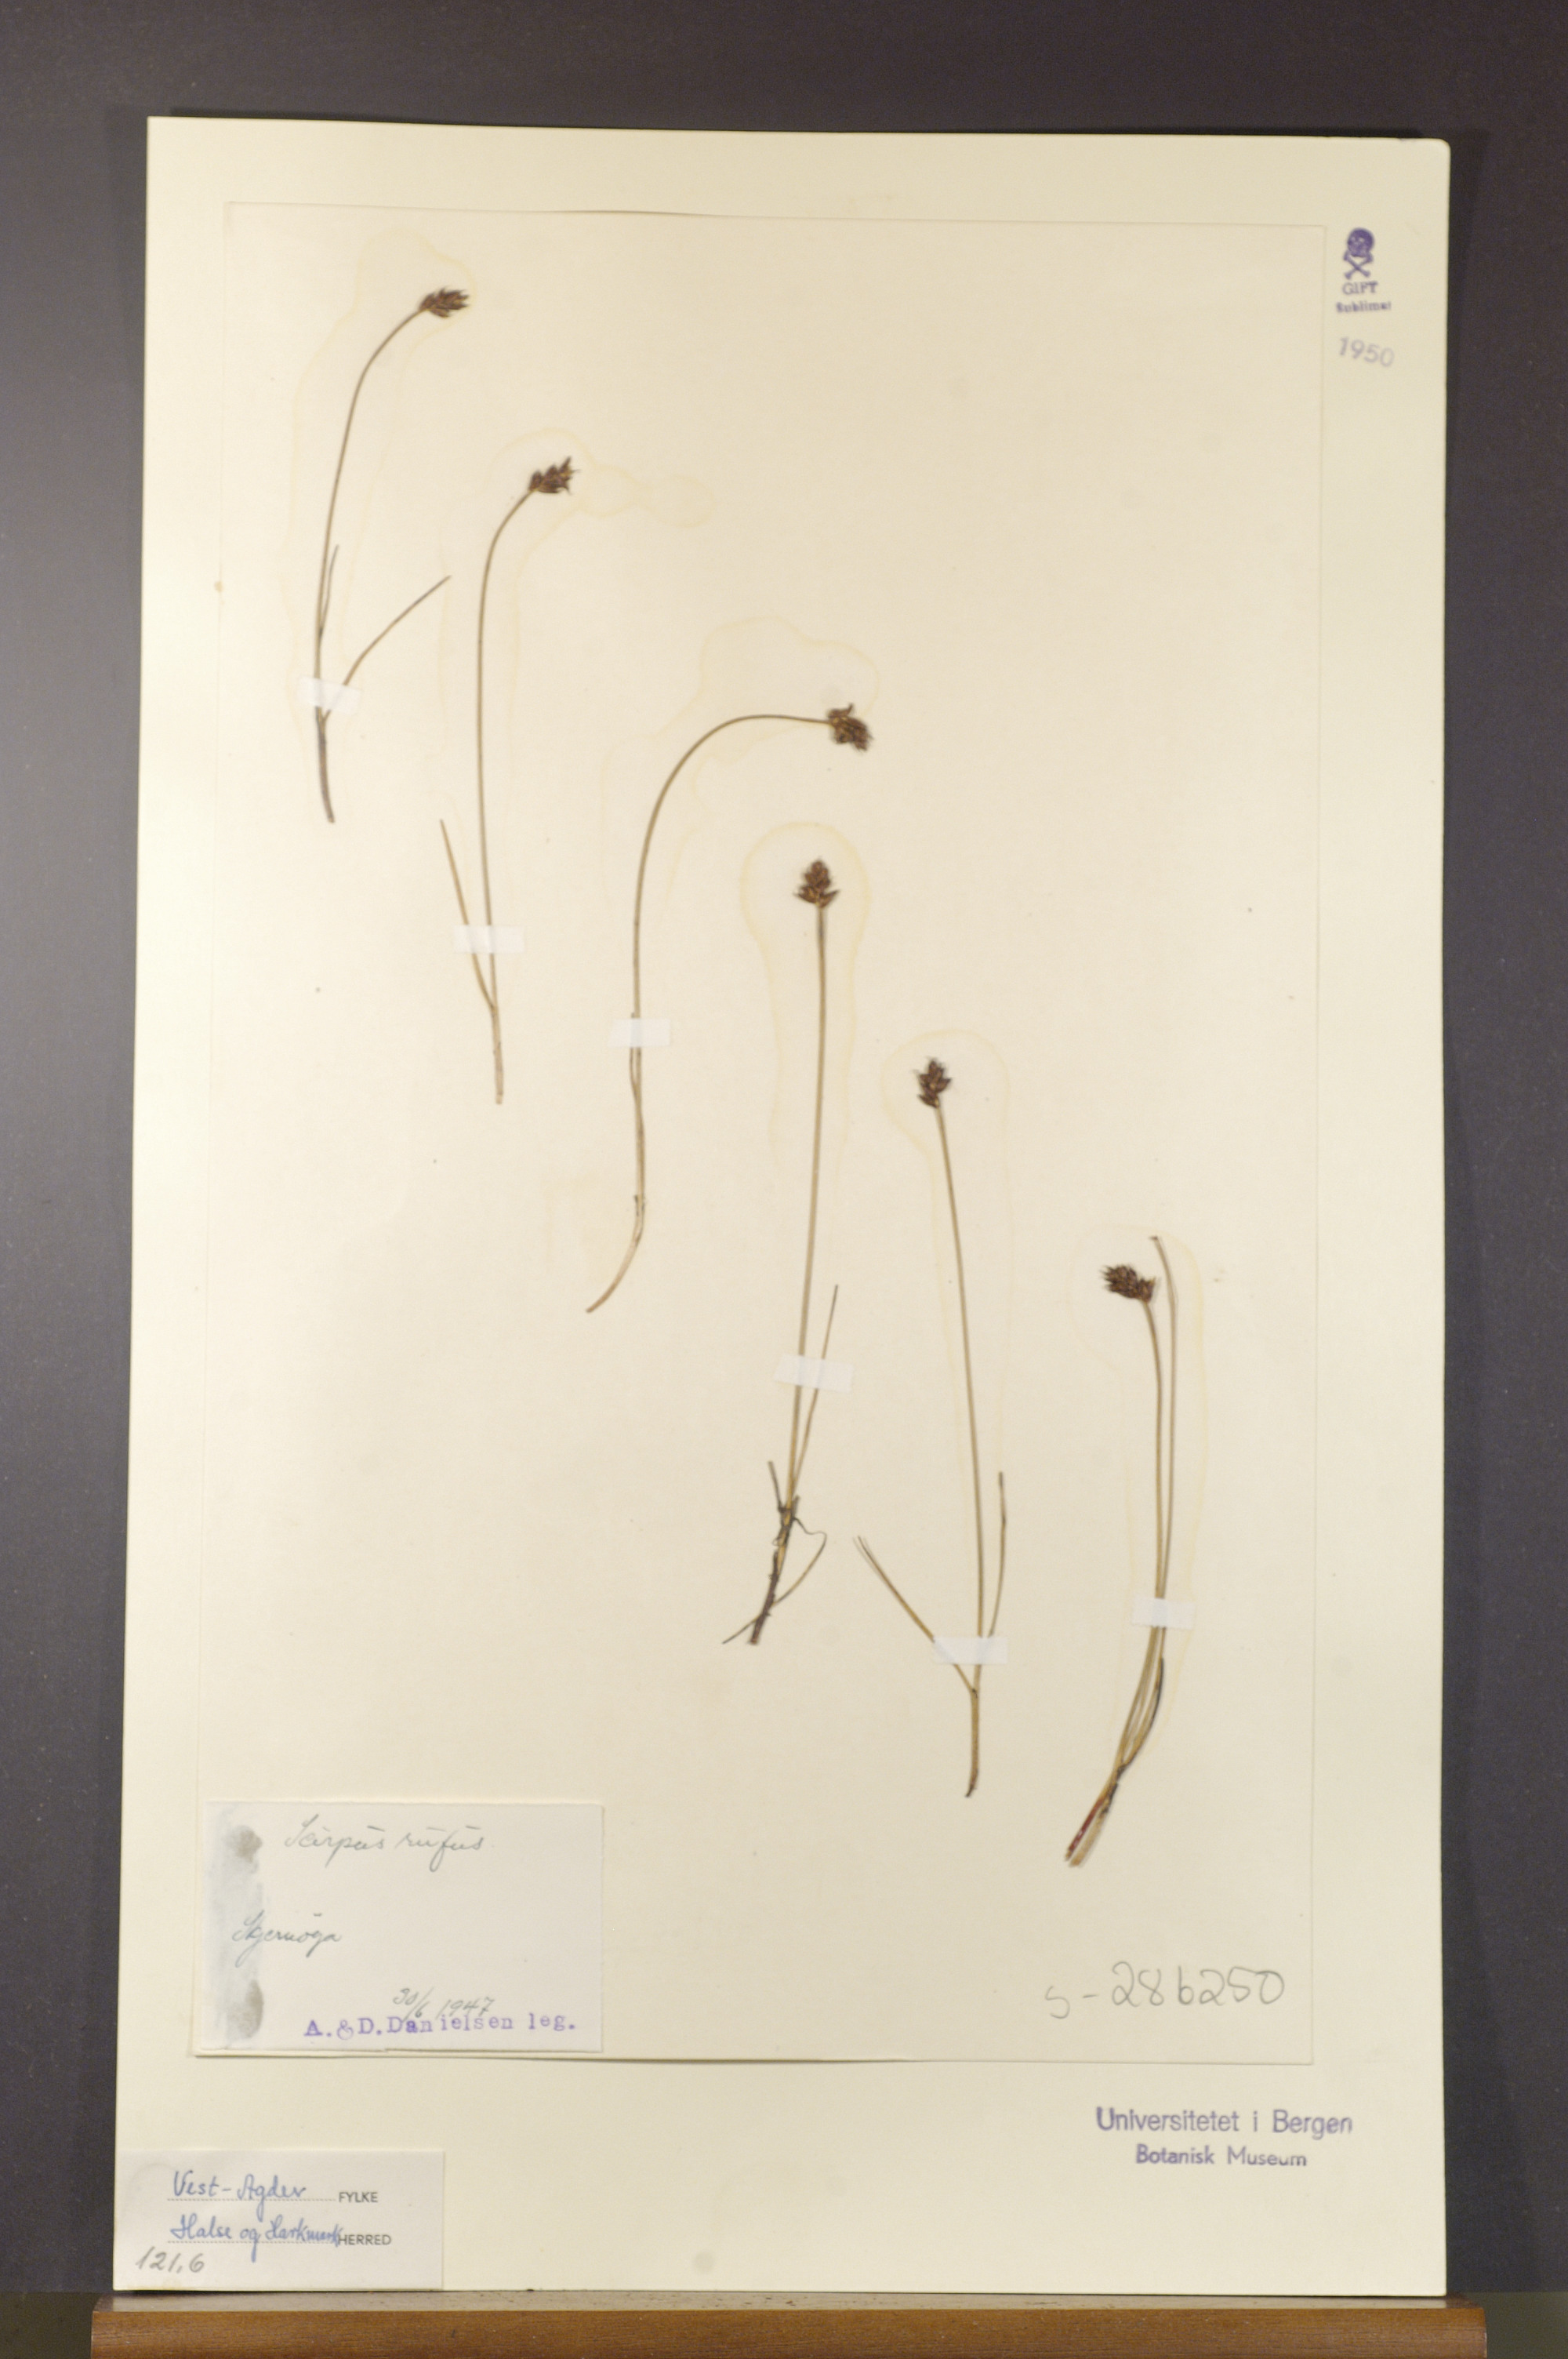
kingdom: Plantae
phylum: Tracheophyta
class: Liliopsida
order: Poales
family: Cyperaceae
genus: Blysmus
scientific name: Blysmus rufus
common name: Saltmarsh flat-sedge
